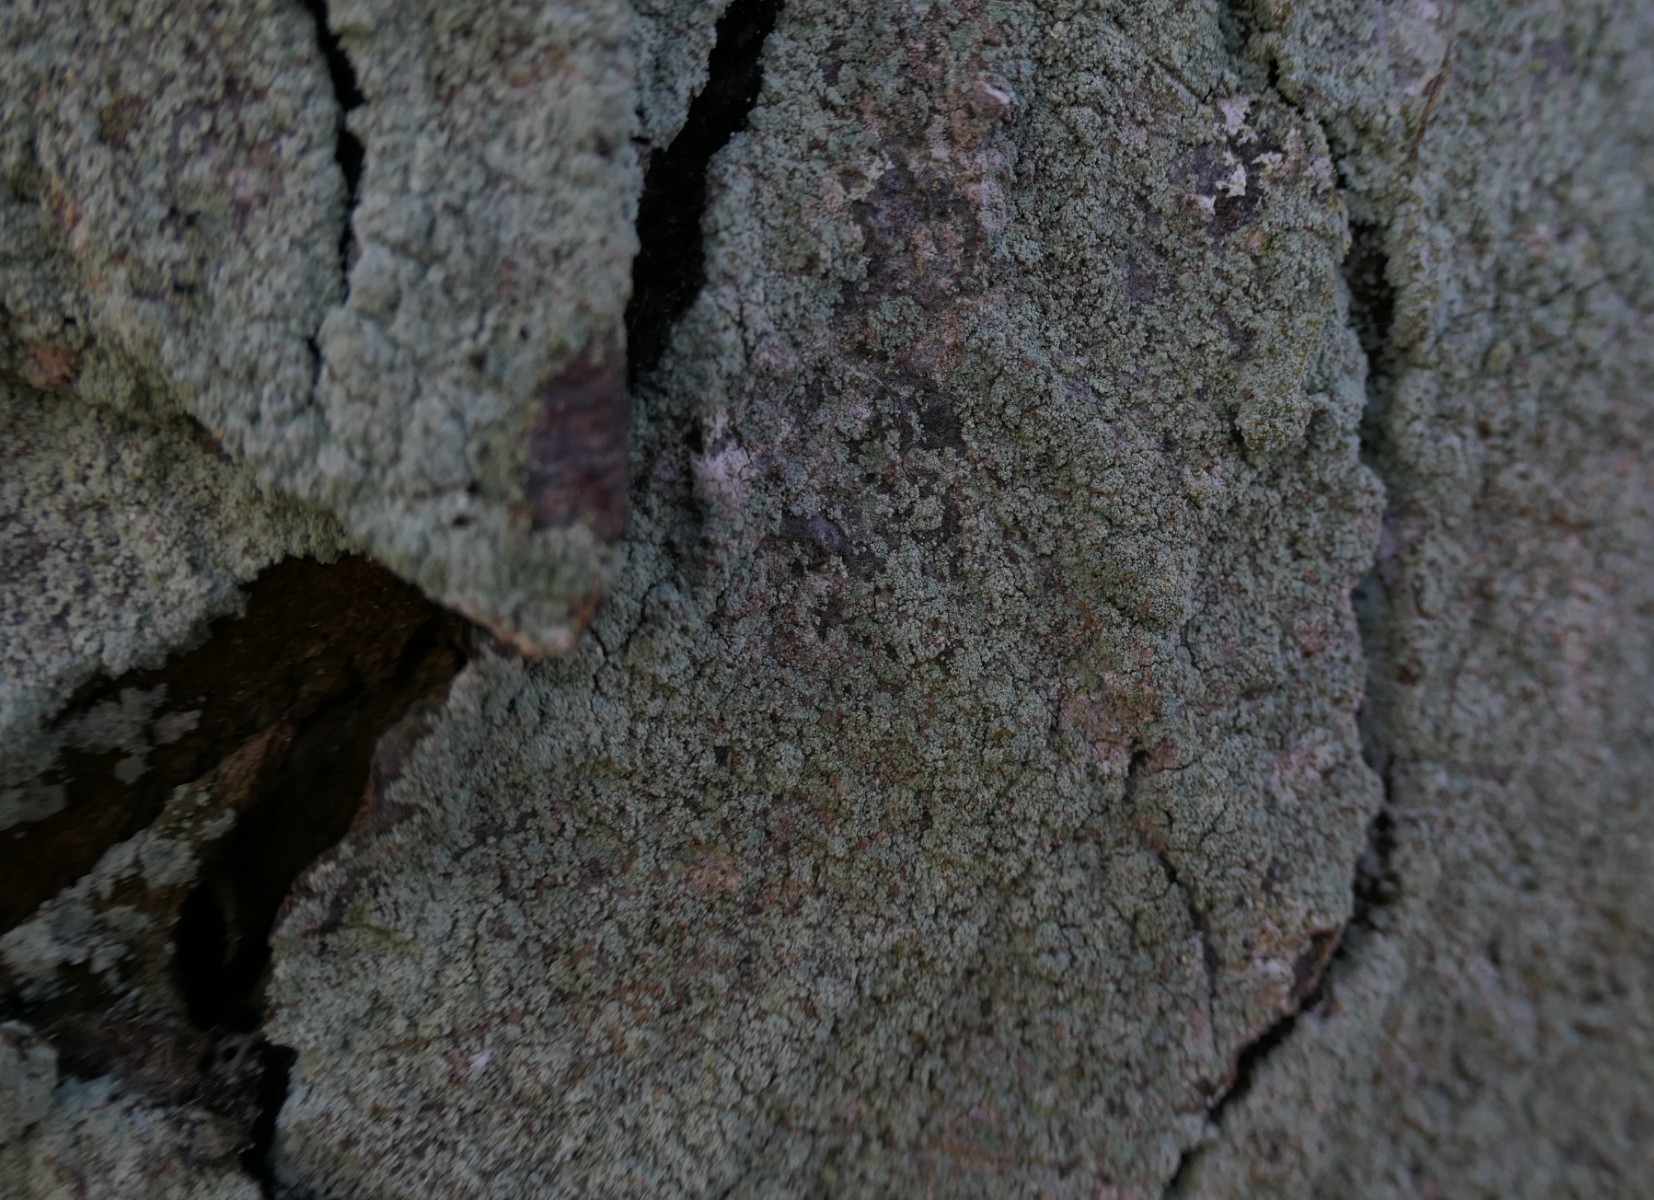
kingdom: Fungi
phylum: Ascomycota
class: Lecanoromycetes
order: Lecanorales
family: Stereocaulaceae
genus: Lepraria
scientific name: Lepraria incana
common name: almindelig støvlav
